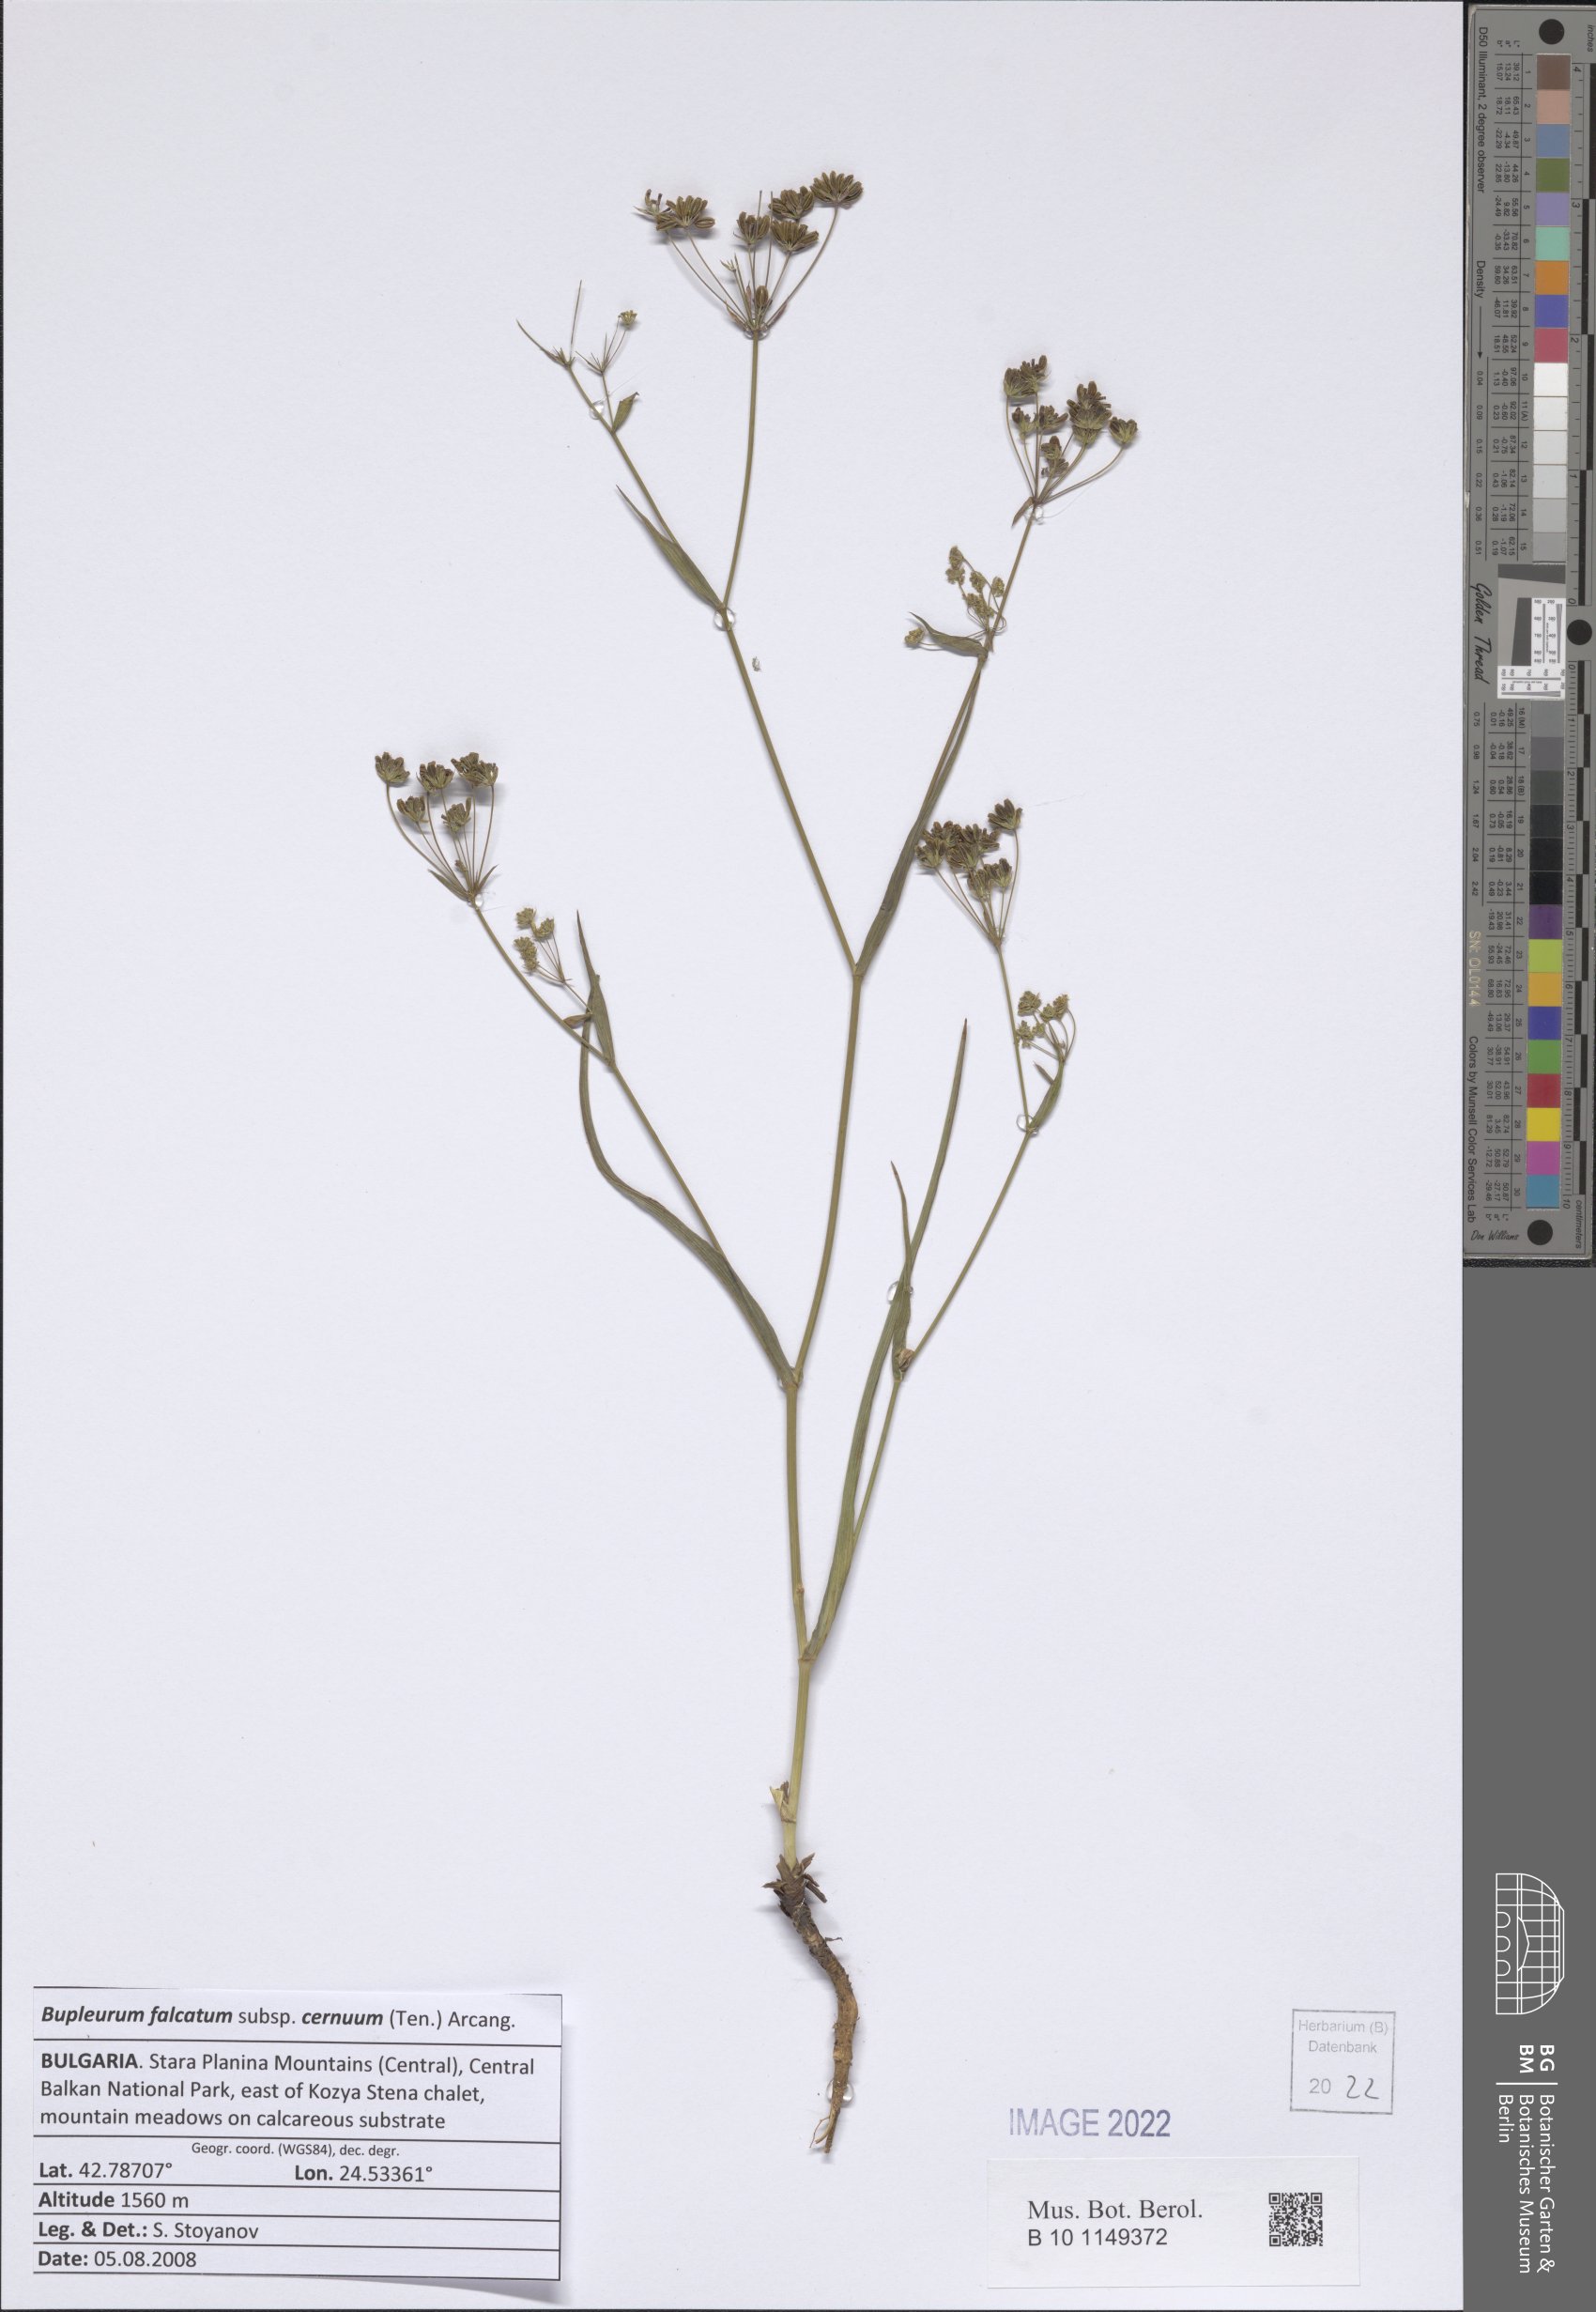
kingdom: Plantae
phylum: Tracheophyta
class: Magnoliopsida
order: Apiales
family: Apiaceae
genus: Bupleurum
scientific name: Bupleurum exaltatum
